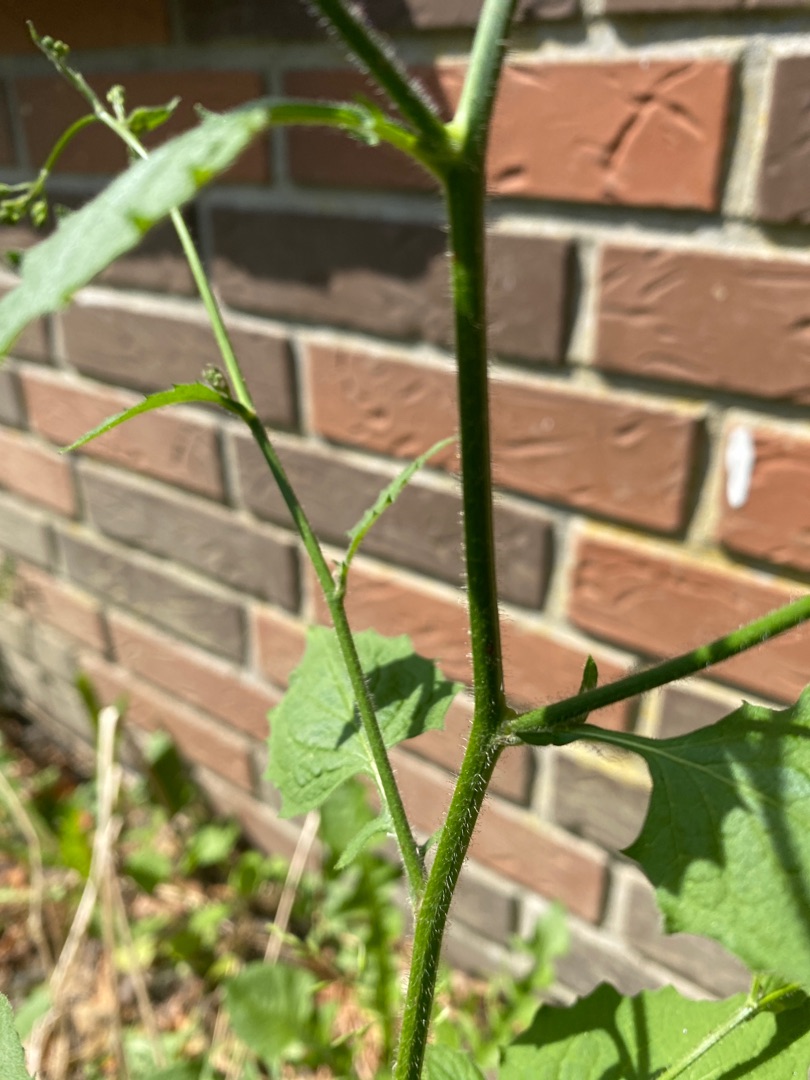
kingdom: Plantae
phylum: Tracheophyta
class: Magnoliopsida
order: Asterales
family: Asteraceae
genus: Lapsana
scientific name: Lapsana communis
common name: Haremad
